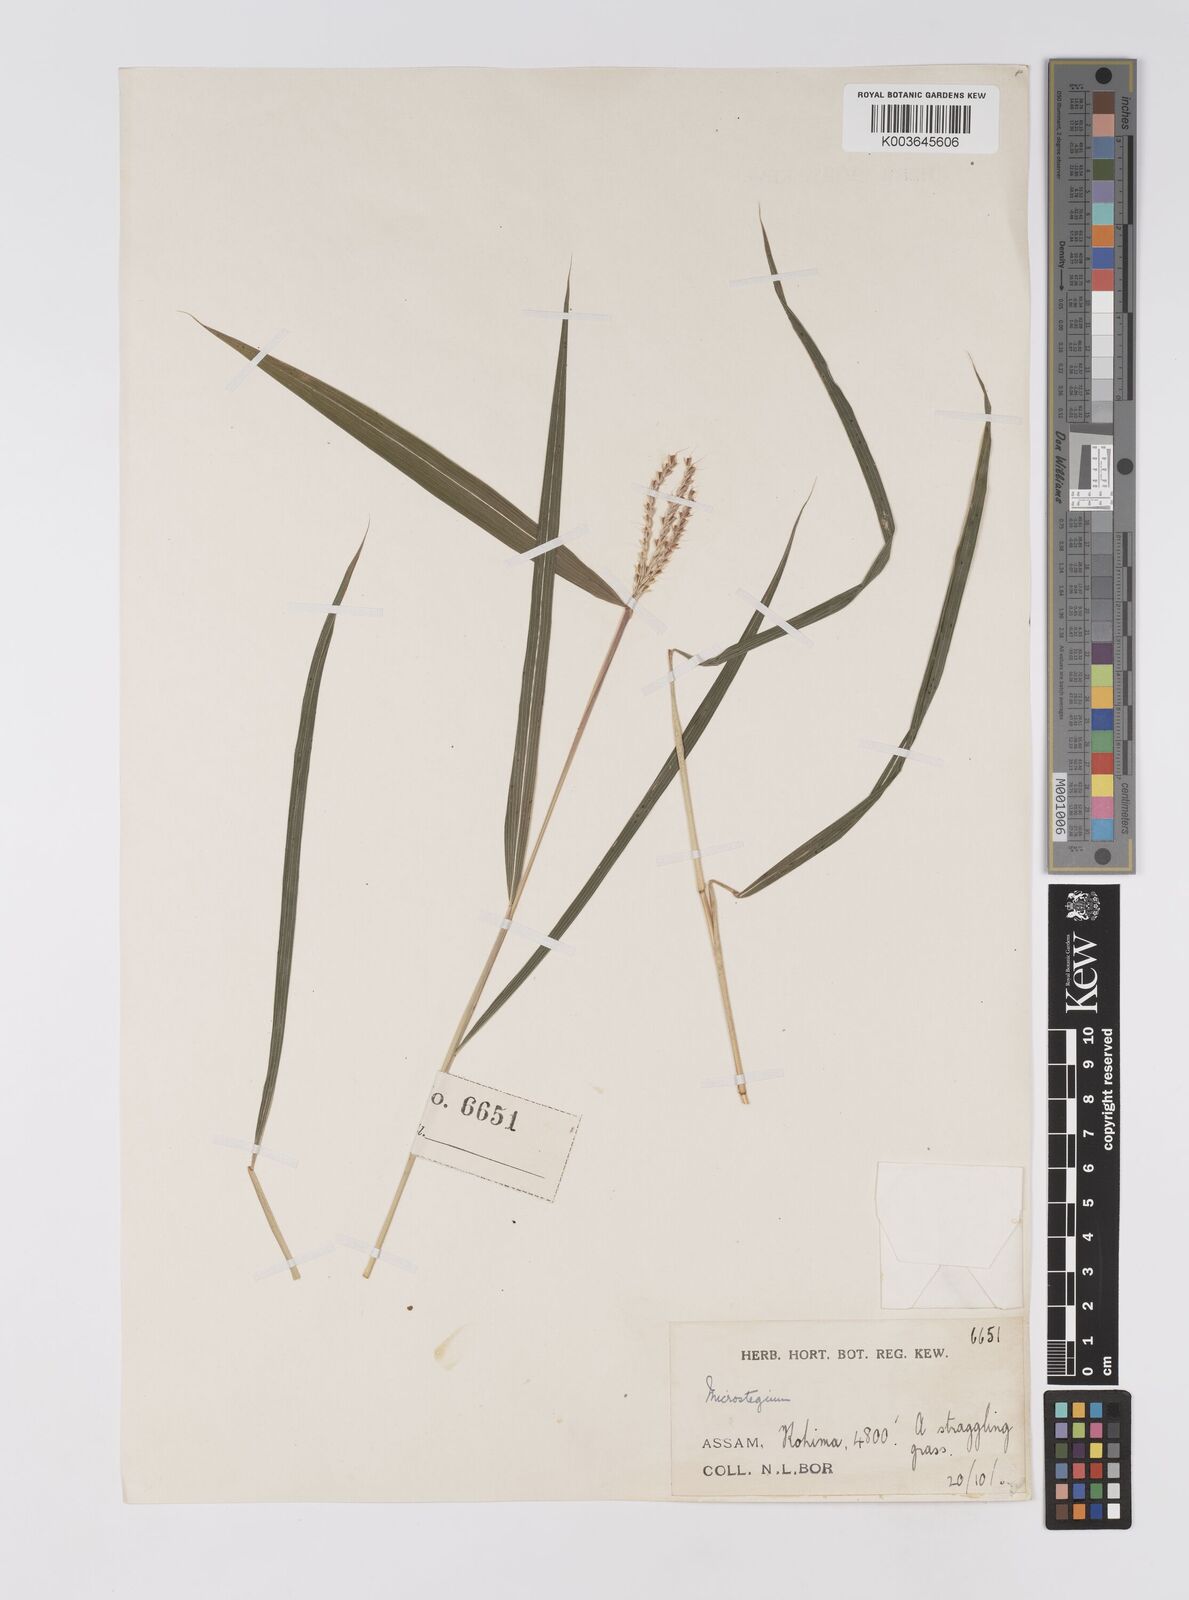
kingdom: Plantae
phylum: Tracheophyta
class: Liliopsida
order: Poales
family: Poaceae
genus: Microstegium
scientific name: Microstegium fasciculatum
